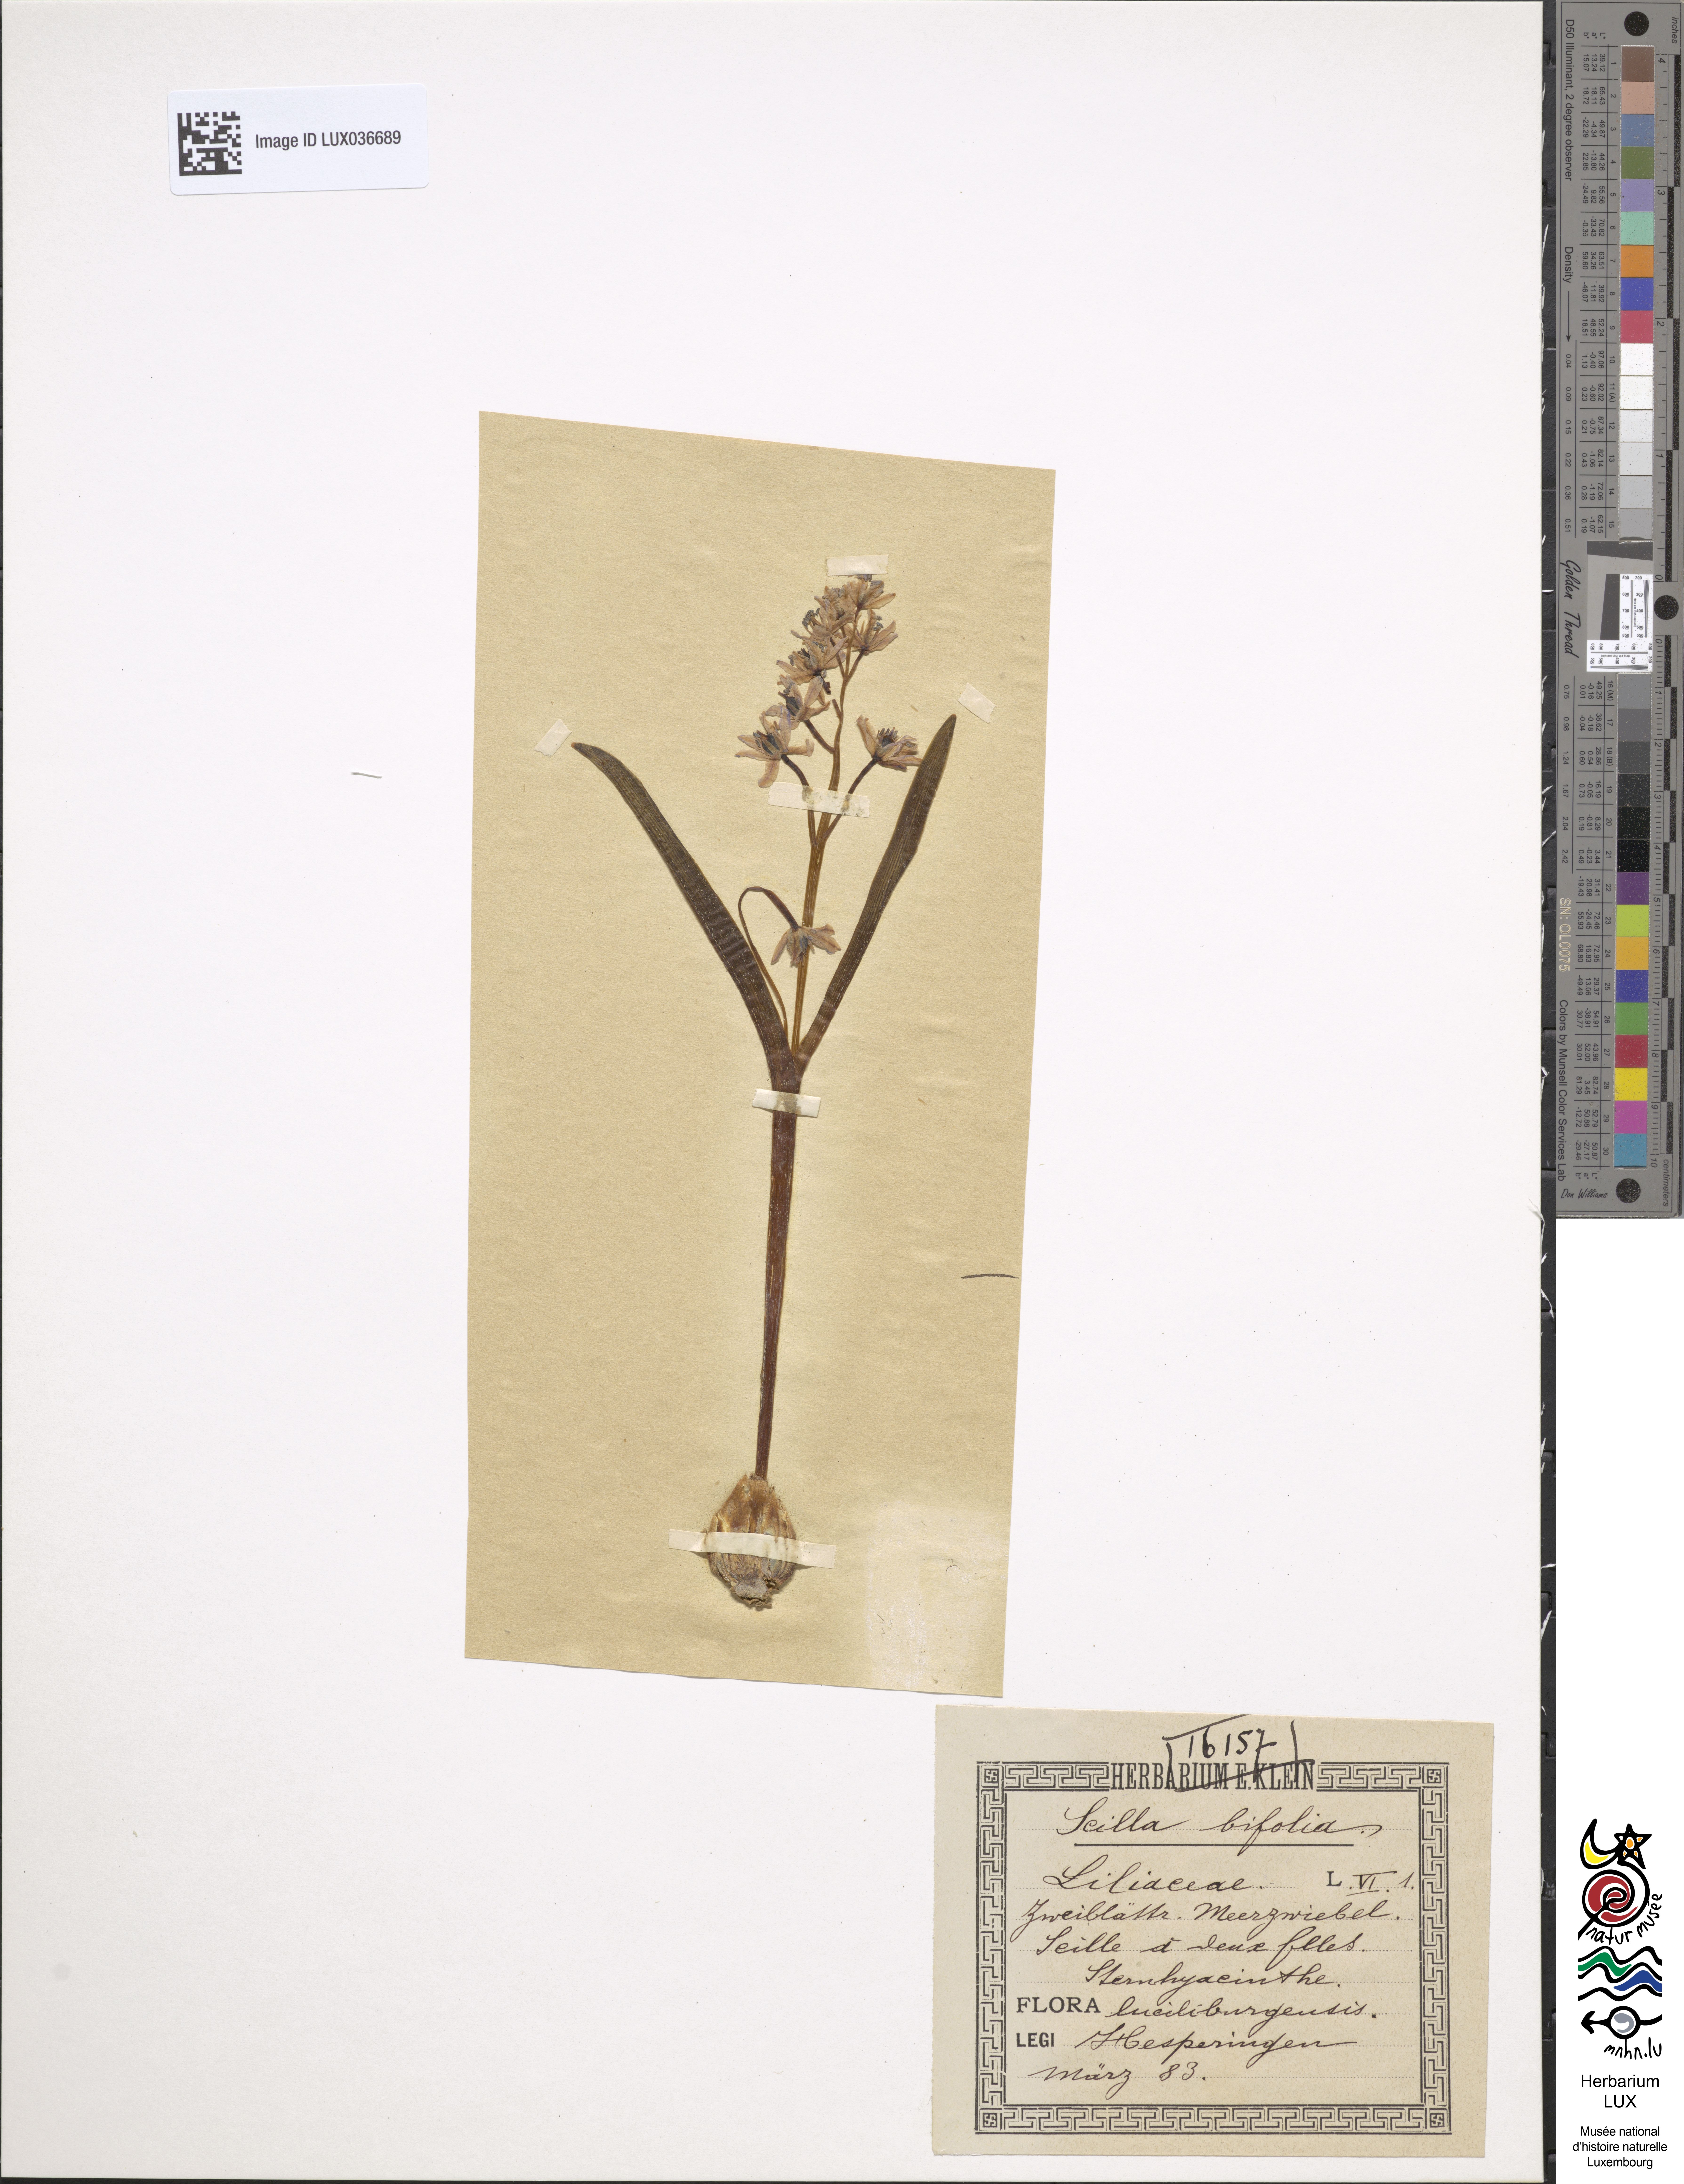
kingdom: Plantae
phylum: Tracheophyta
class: Liliopsida
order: Asparagales
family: Asparagaceae
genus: Scilla
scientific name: Scilla bifolia
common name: Alpine squill
